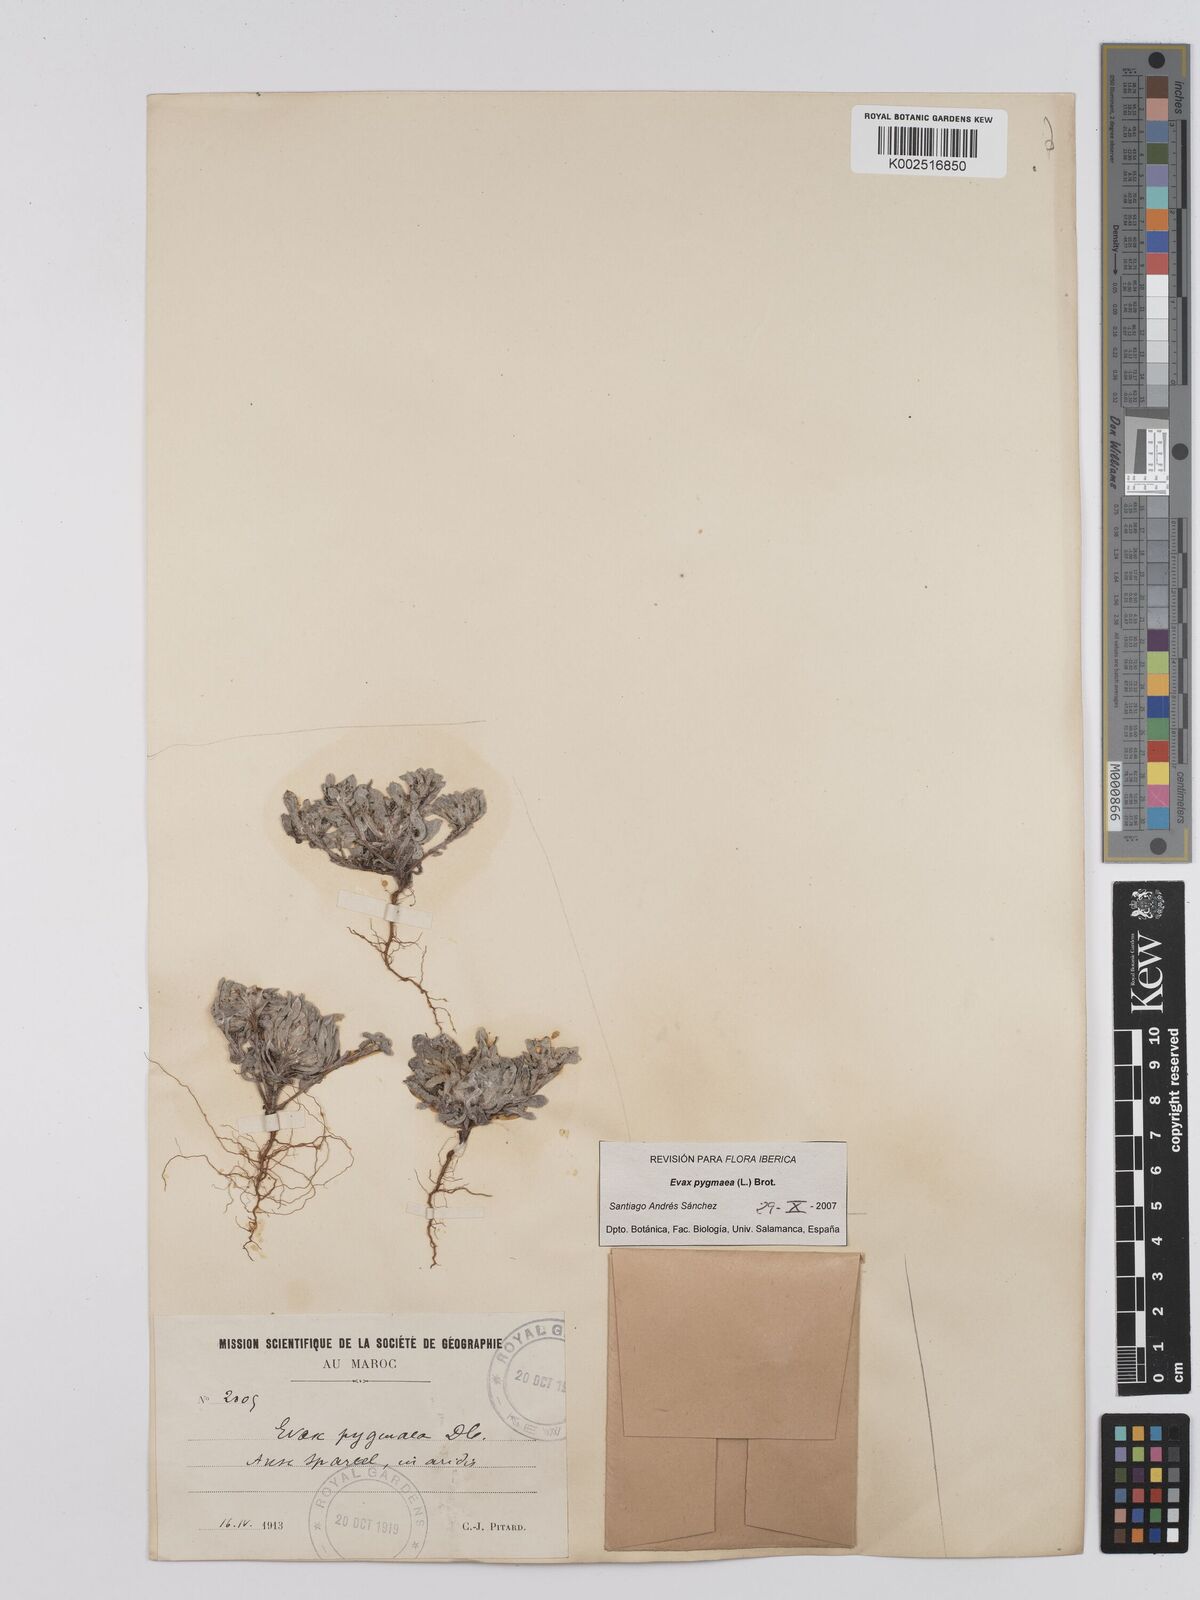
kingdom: Plantae
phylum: Tracheophyta
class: Magnoliopsida
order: Asterales
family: Asteraceae
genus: Filago
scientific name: Filago pygmaea
